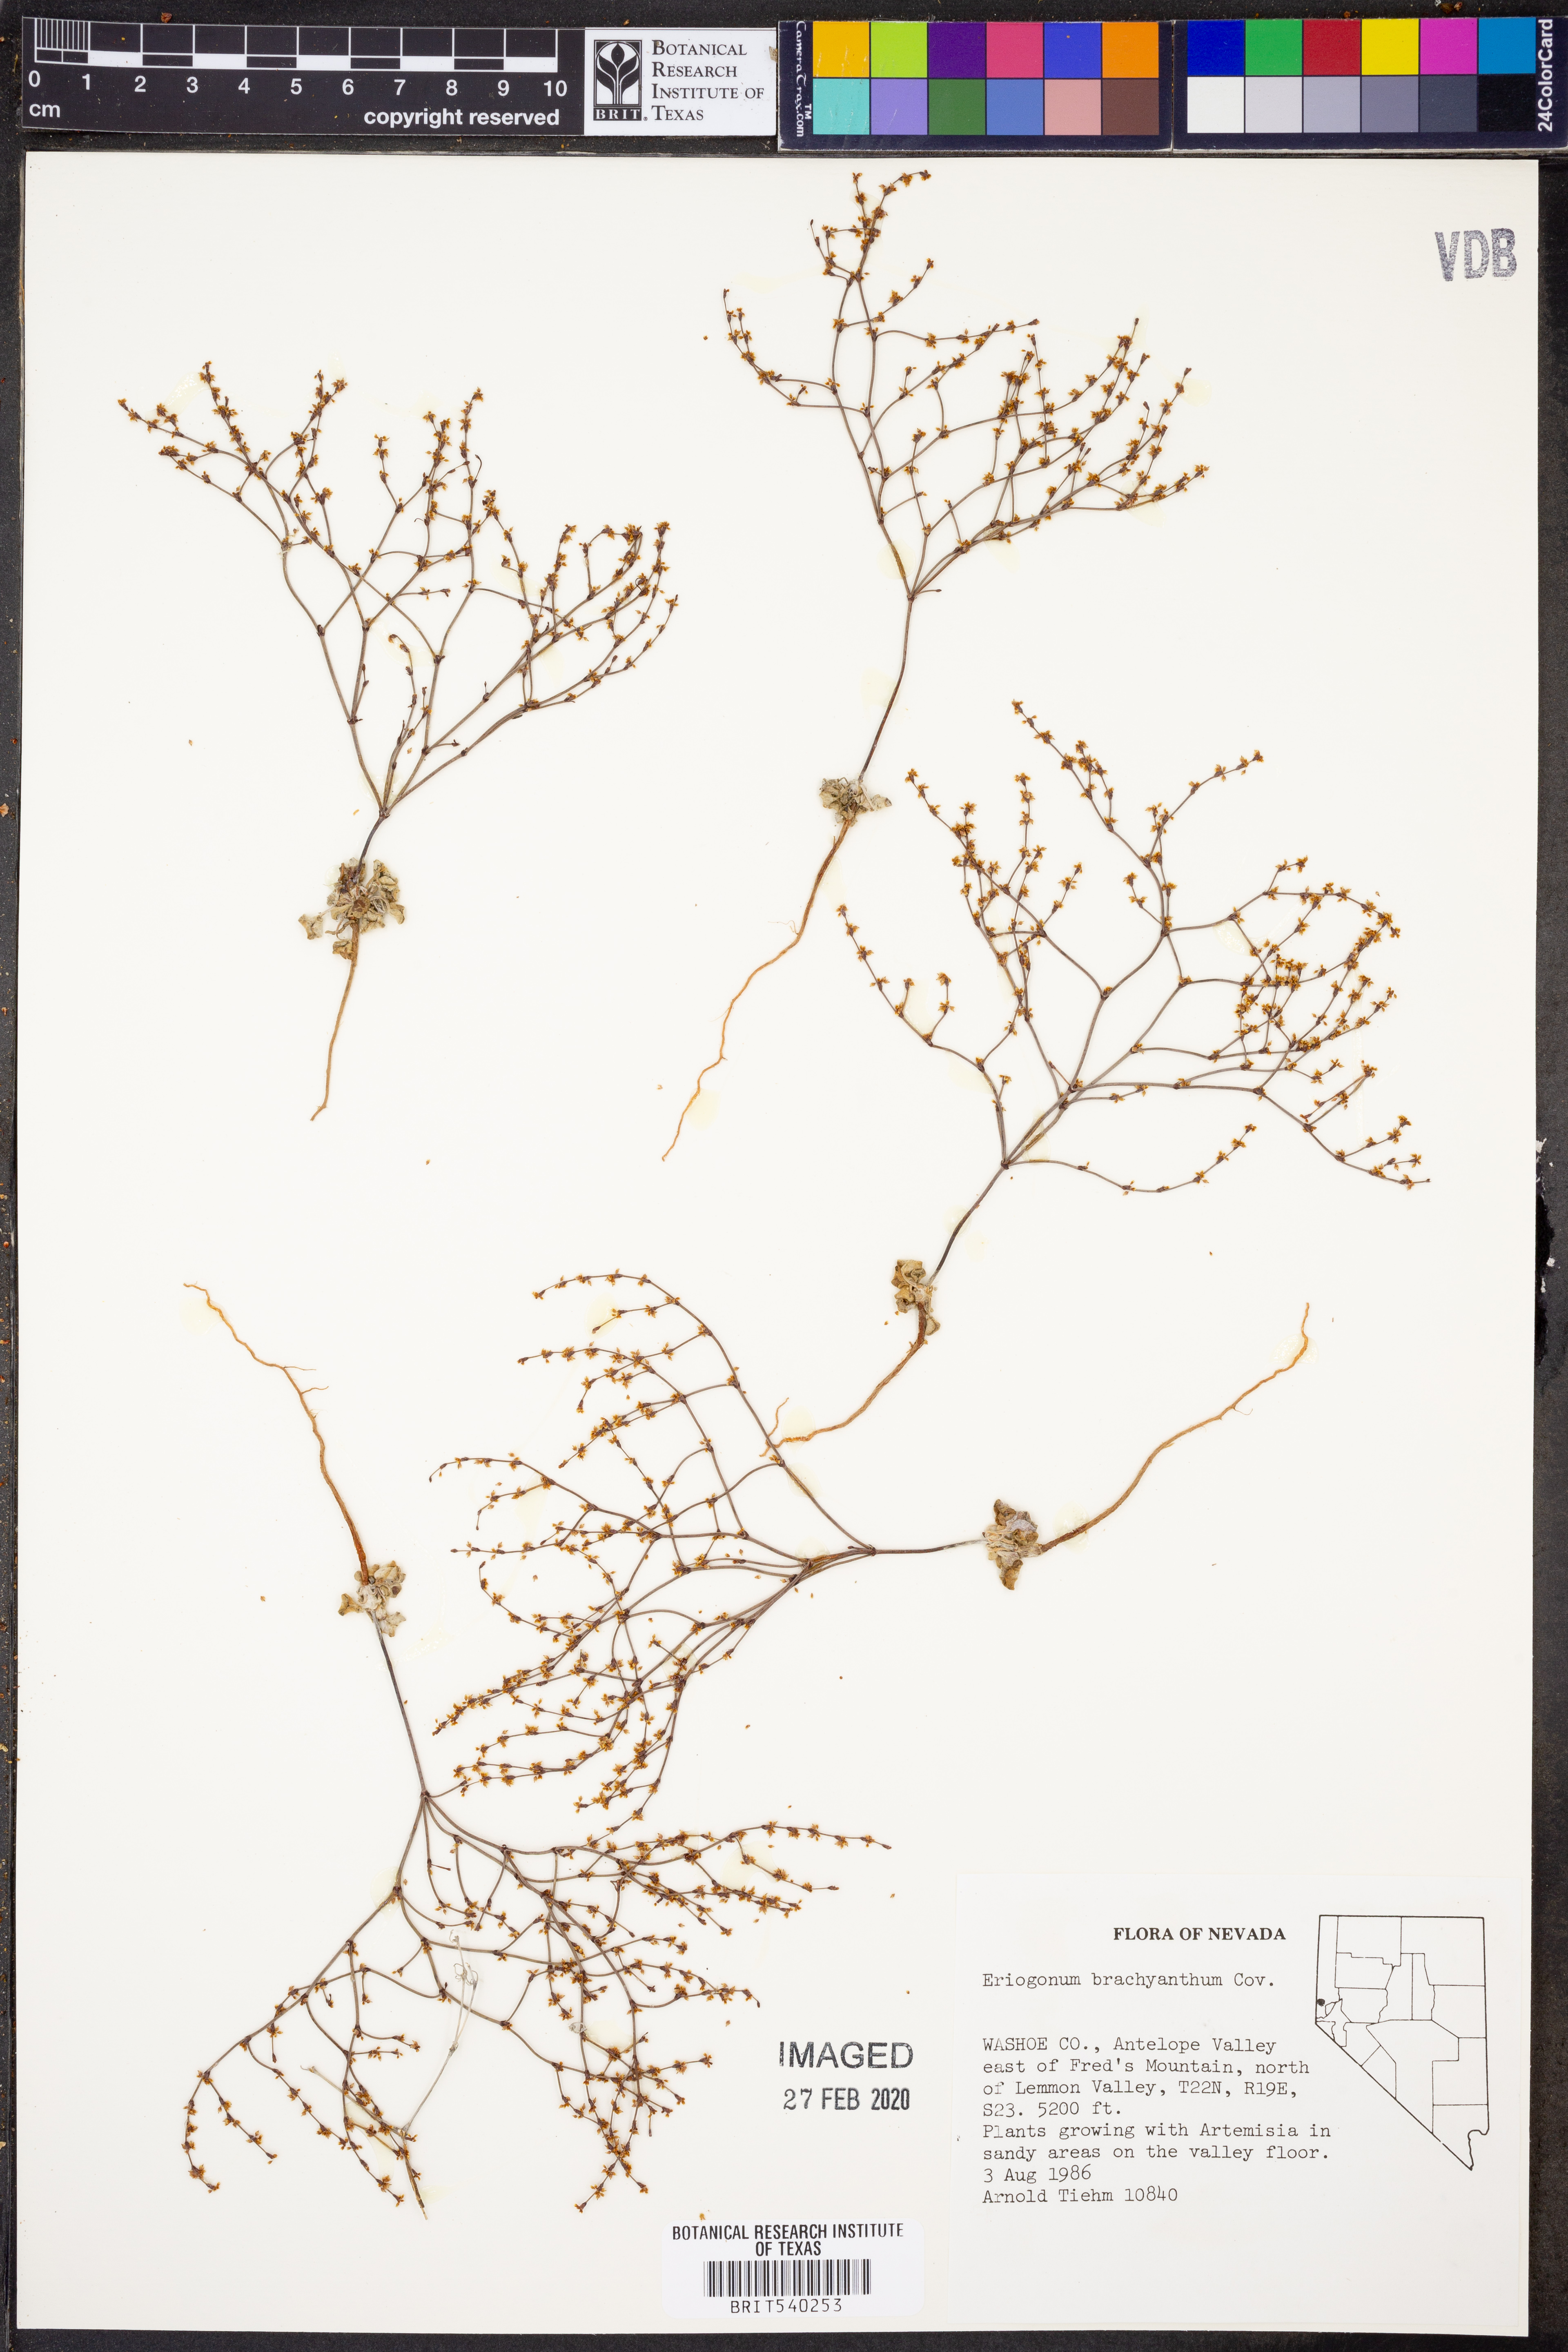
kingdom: Plantae
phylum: Tracheophyta
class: Magnoliopsida
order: Caryophyllales
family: Polygonaceae
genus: Eriogonum
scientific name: Eriogonum brachyanthum
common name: Short-flower wild buckwheat
